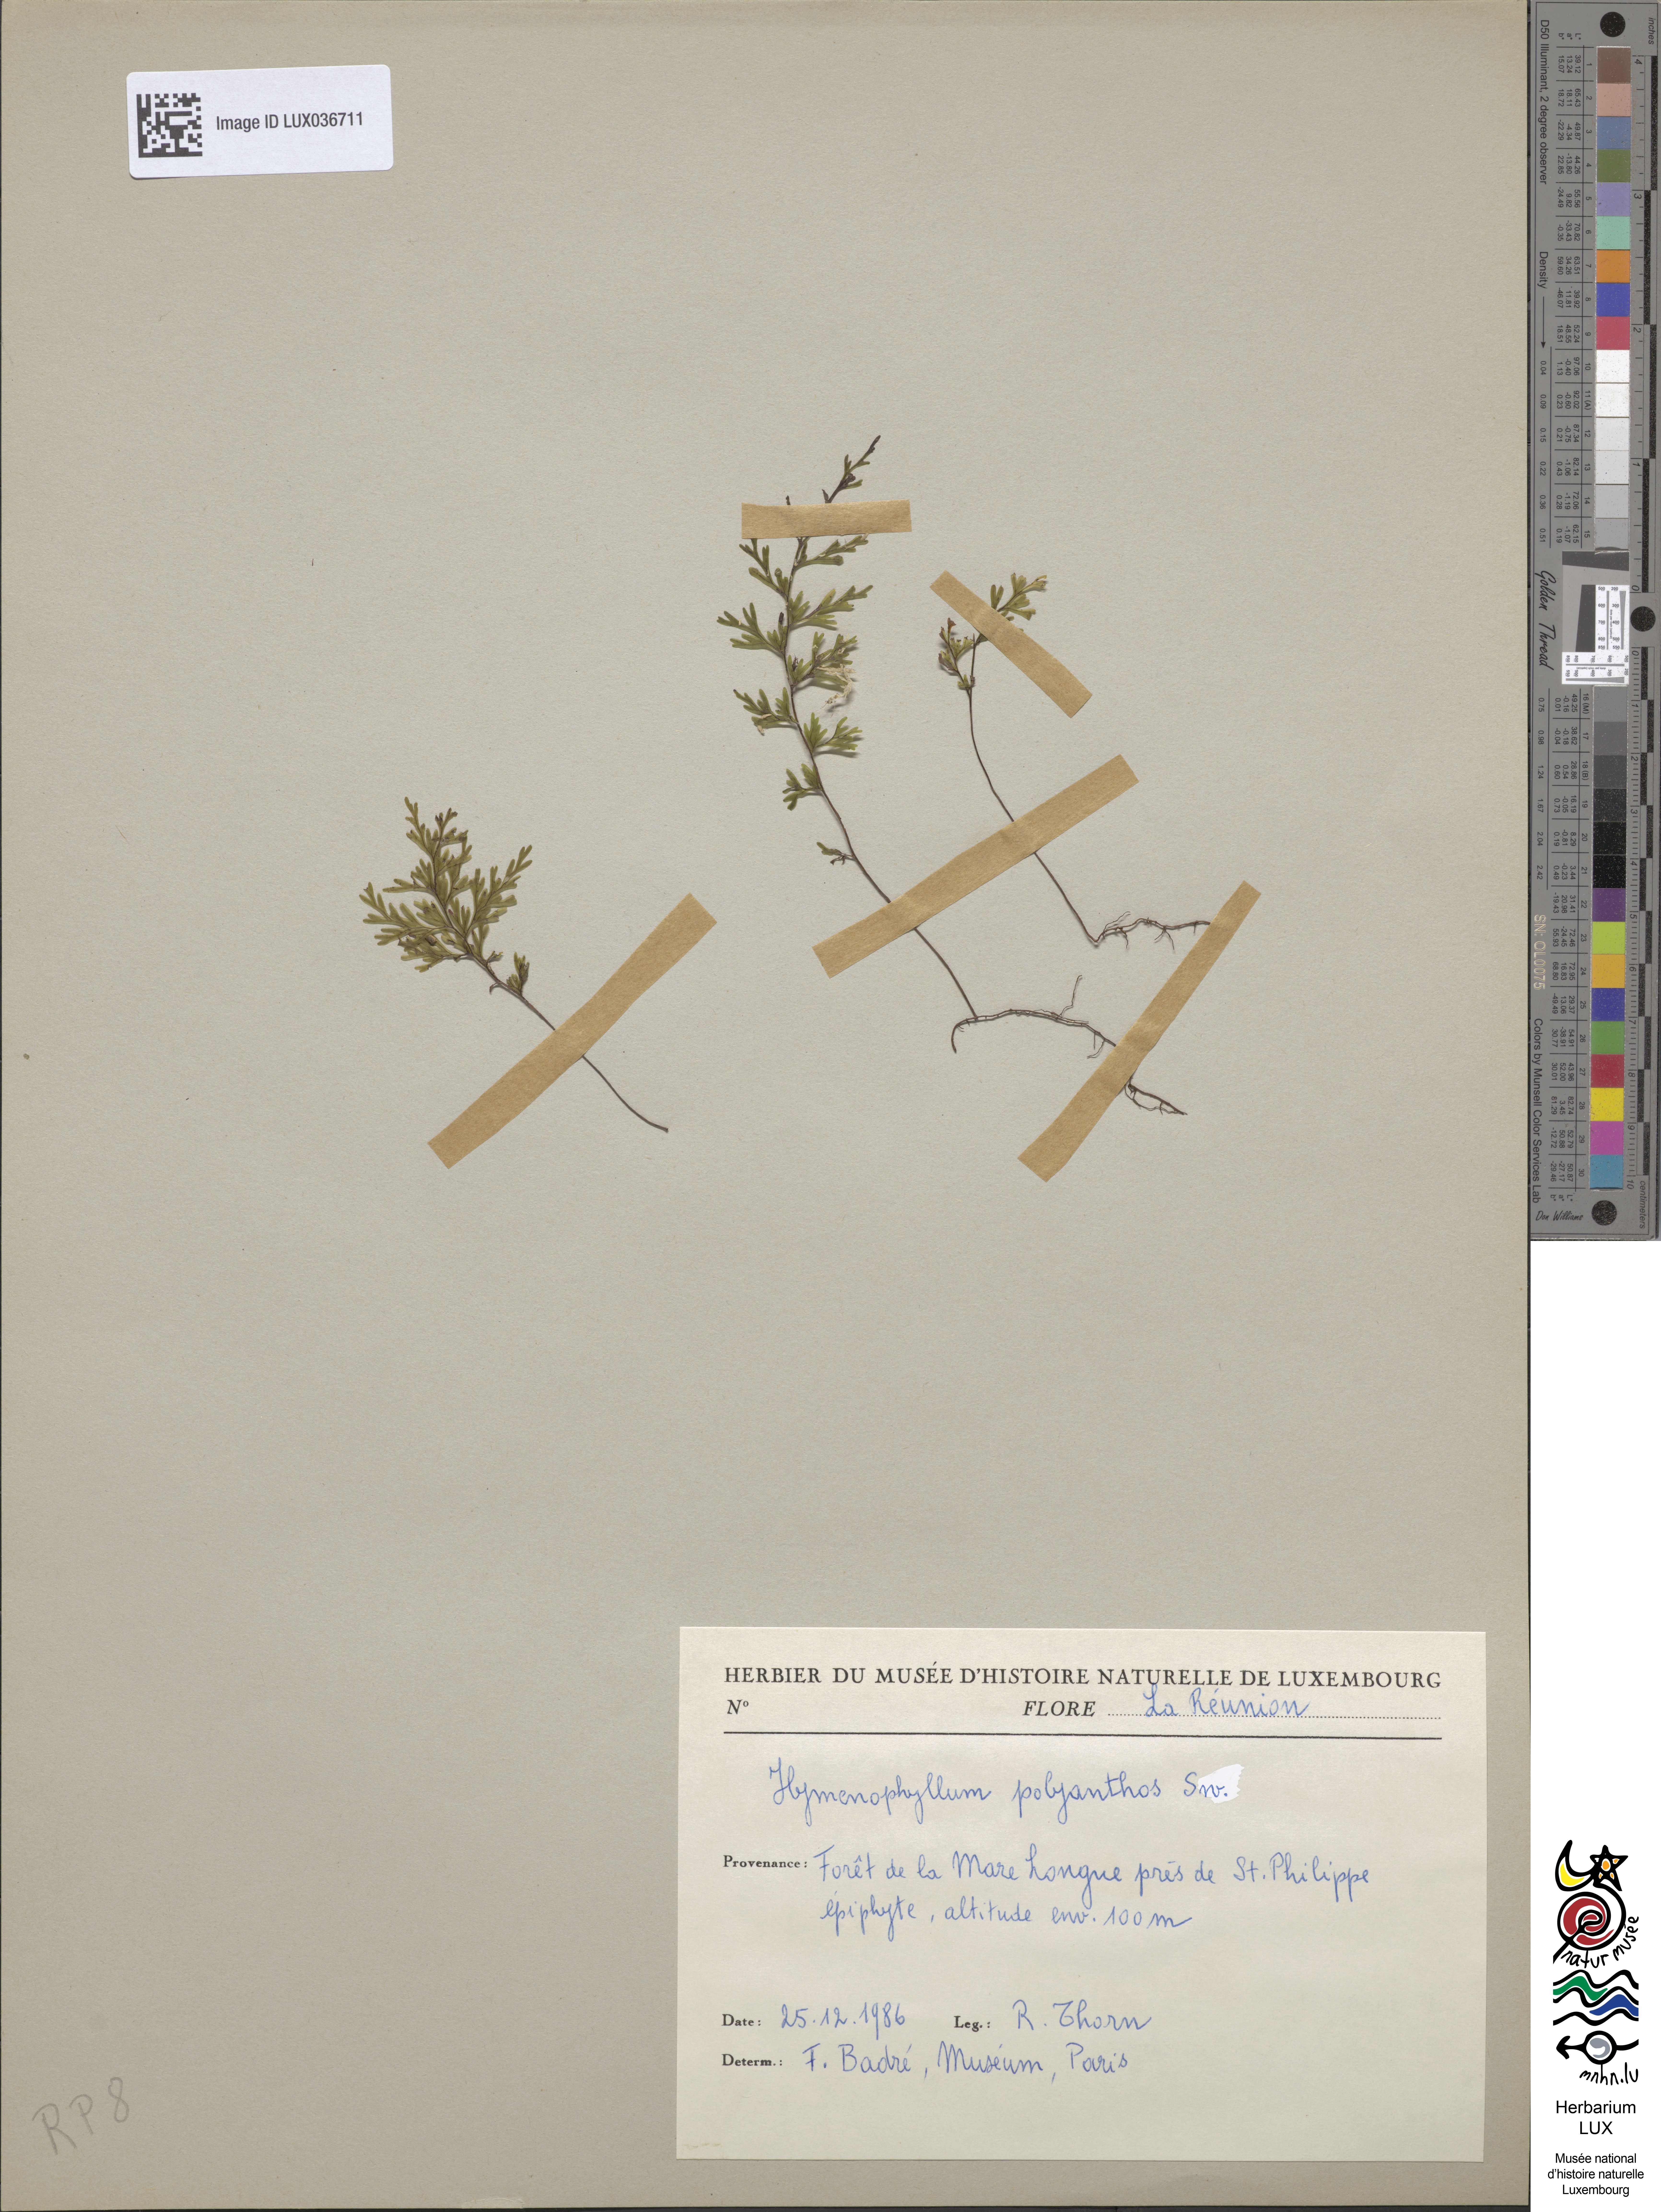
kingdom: Plantae
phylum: Tracheophyta
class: Polypodiopsida
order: Hymenophyllales
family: Hymenophyllaceae
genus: Hymenophyllum
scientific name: Hymenophyllum polyanthos
